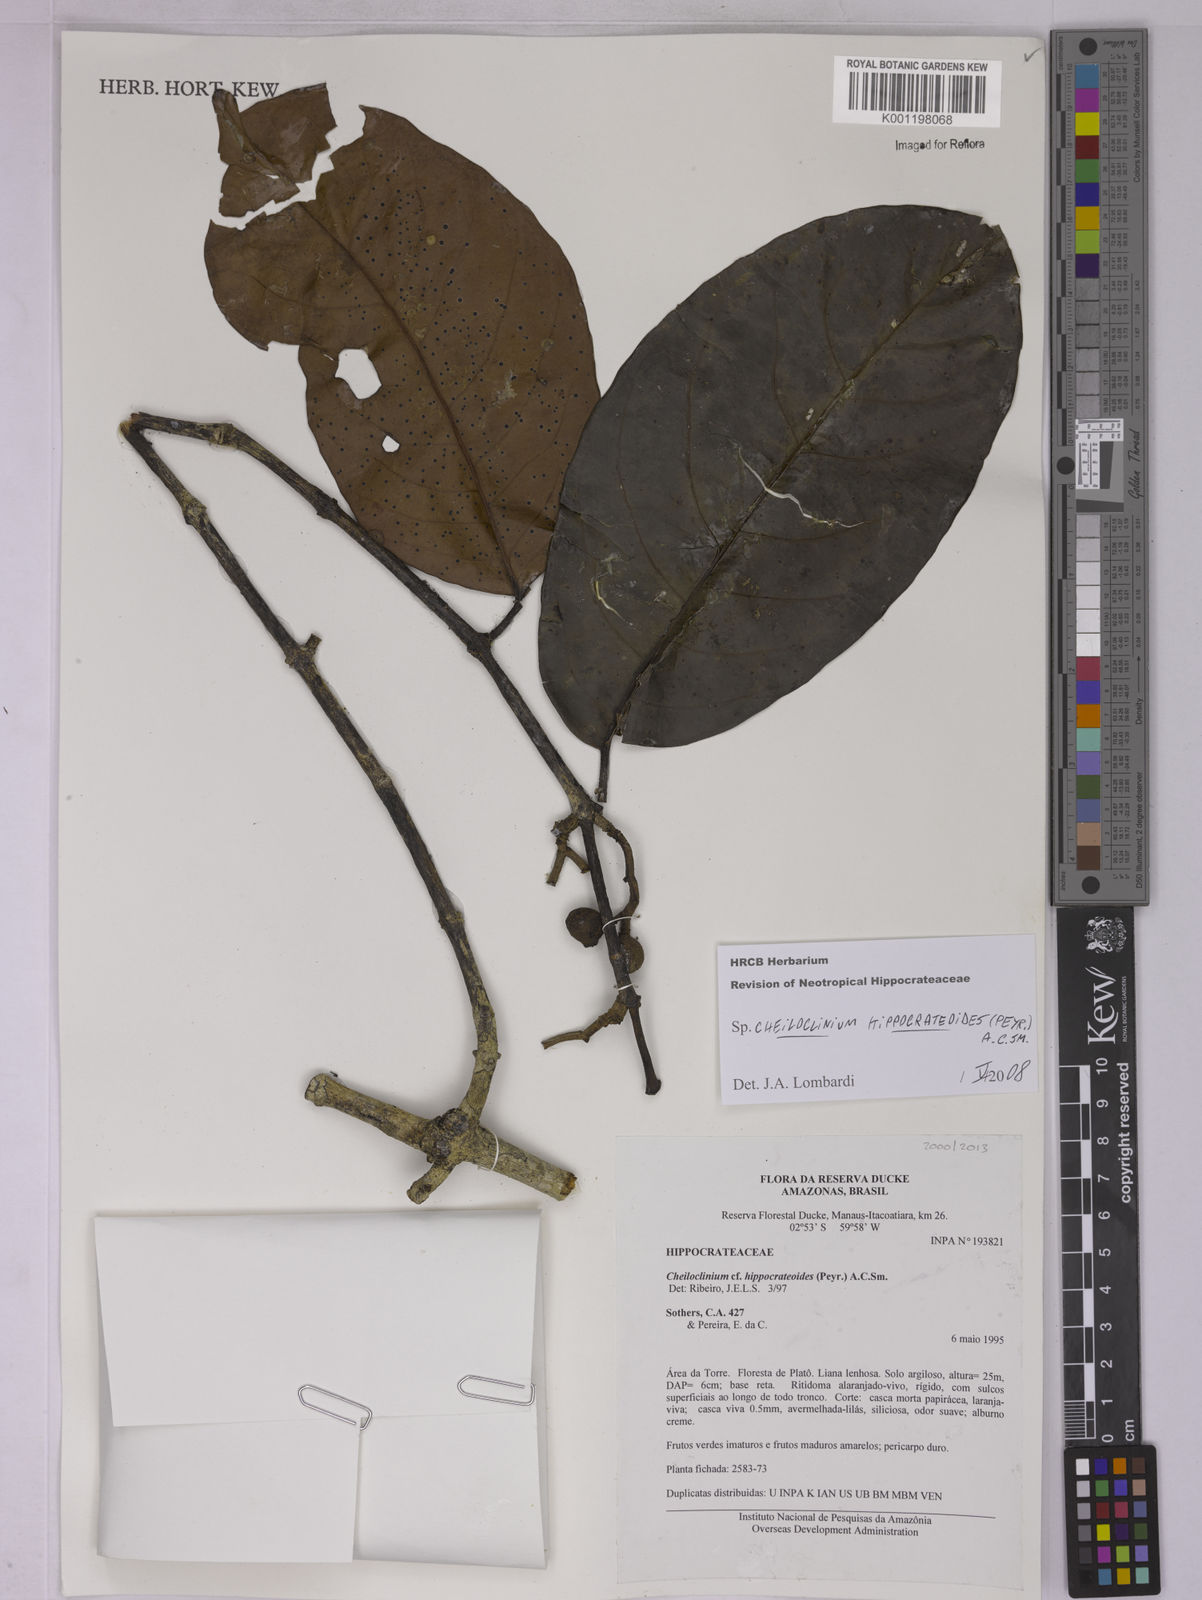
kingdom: Plantae
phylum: Tracheophyta
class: Magnoliopsida
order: Celastrales
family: Celastraceae
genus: Cheiloclinium
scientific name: Cheiloclinium hippocrateoides
